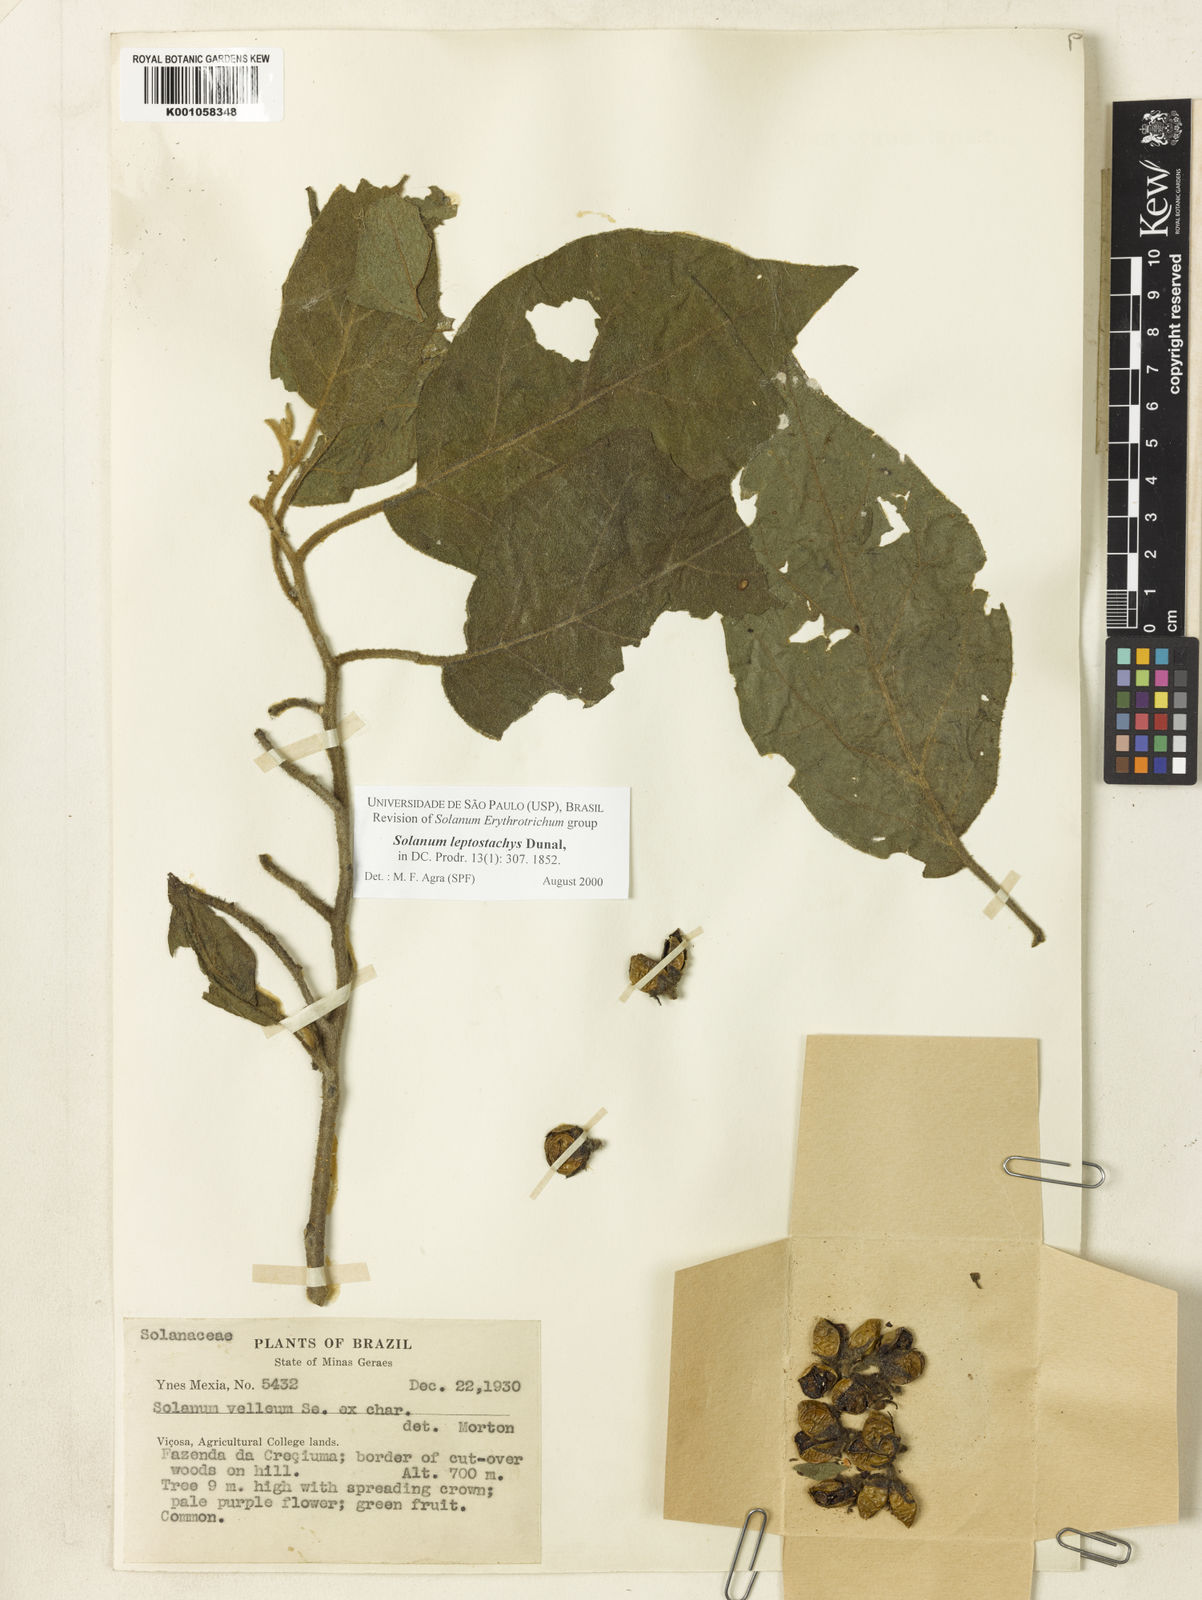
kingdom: Plantae
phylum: Tracheophyta
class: Magnoliopsida
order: Solanales
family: Solanaceae
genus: Solanum
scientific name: Solanum leptostachys
